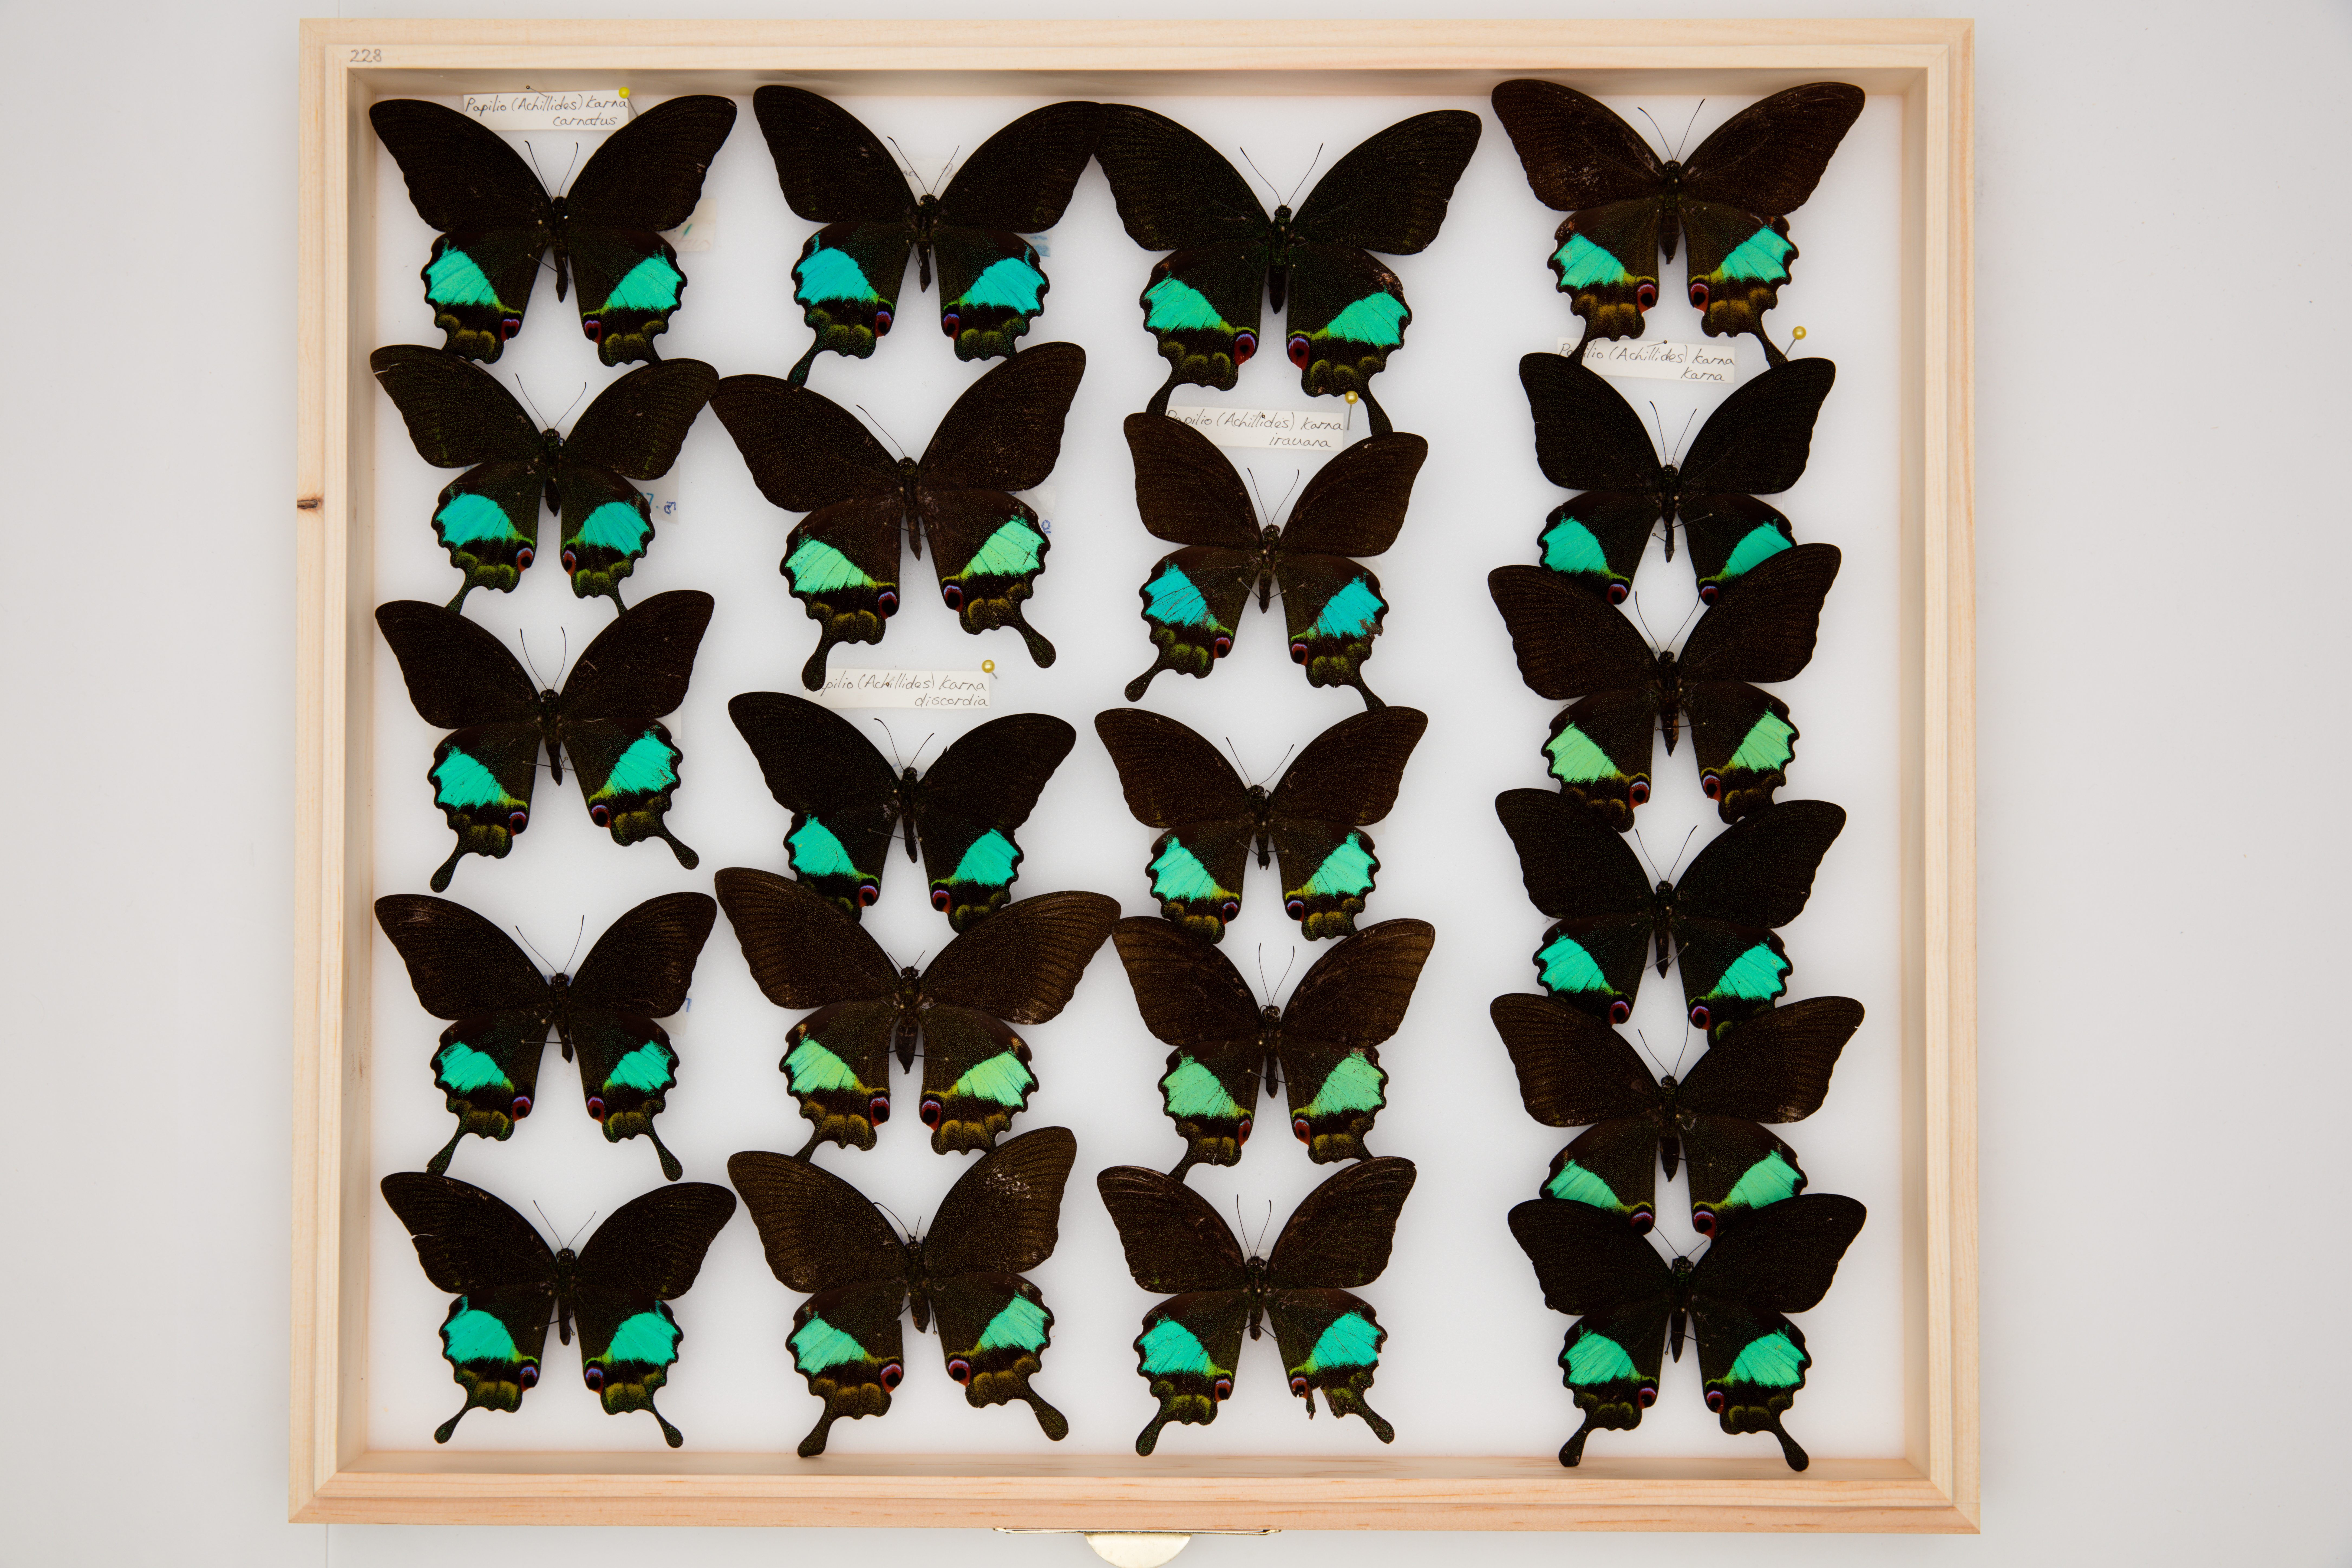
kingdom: Animalia
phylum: Arthropoda
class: Insecta
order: Lepidoptera
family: Papilionidae
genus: Papilio
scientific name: Papilio karna
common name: Jungle jade swallowtail
